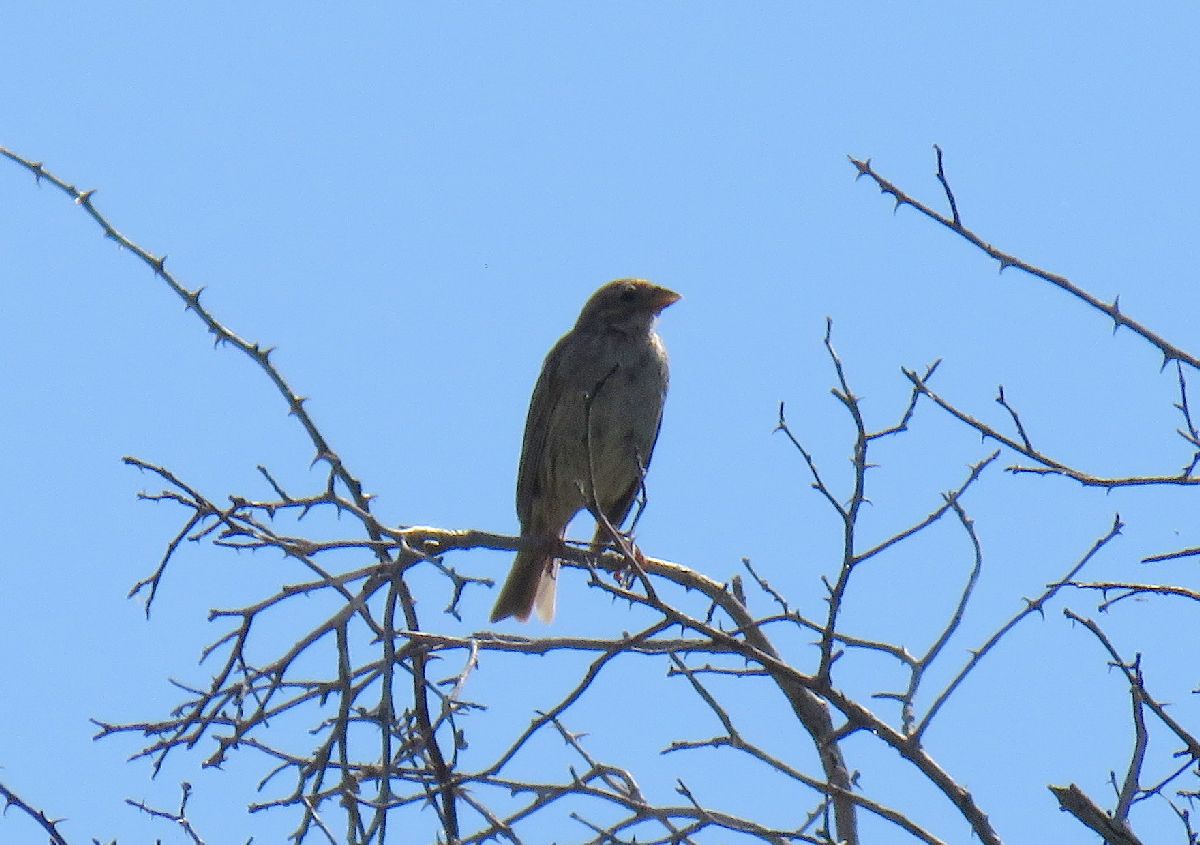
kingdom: Animalia
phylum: Chordata
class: Aves
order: Passeriformes
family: Emberizidae
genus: Emberiza
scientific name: Emberiza calandra
